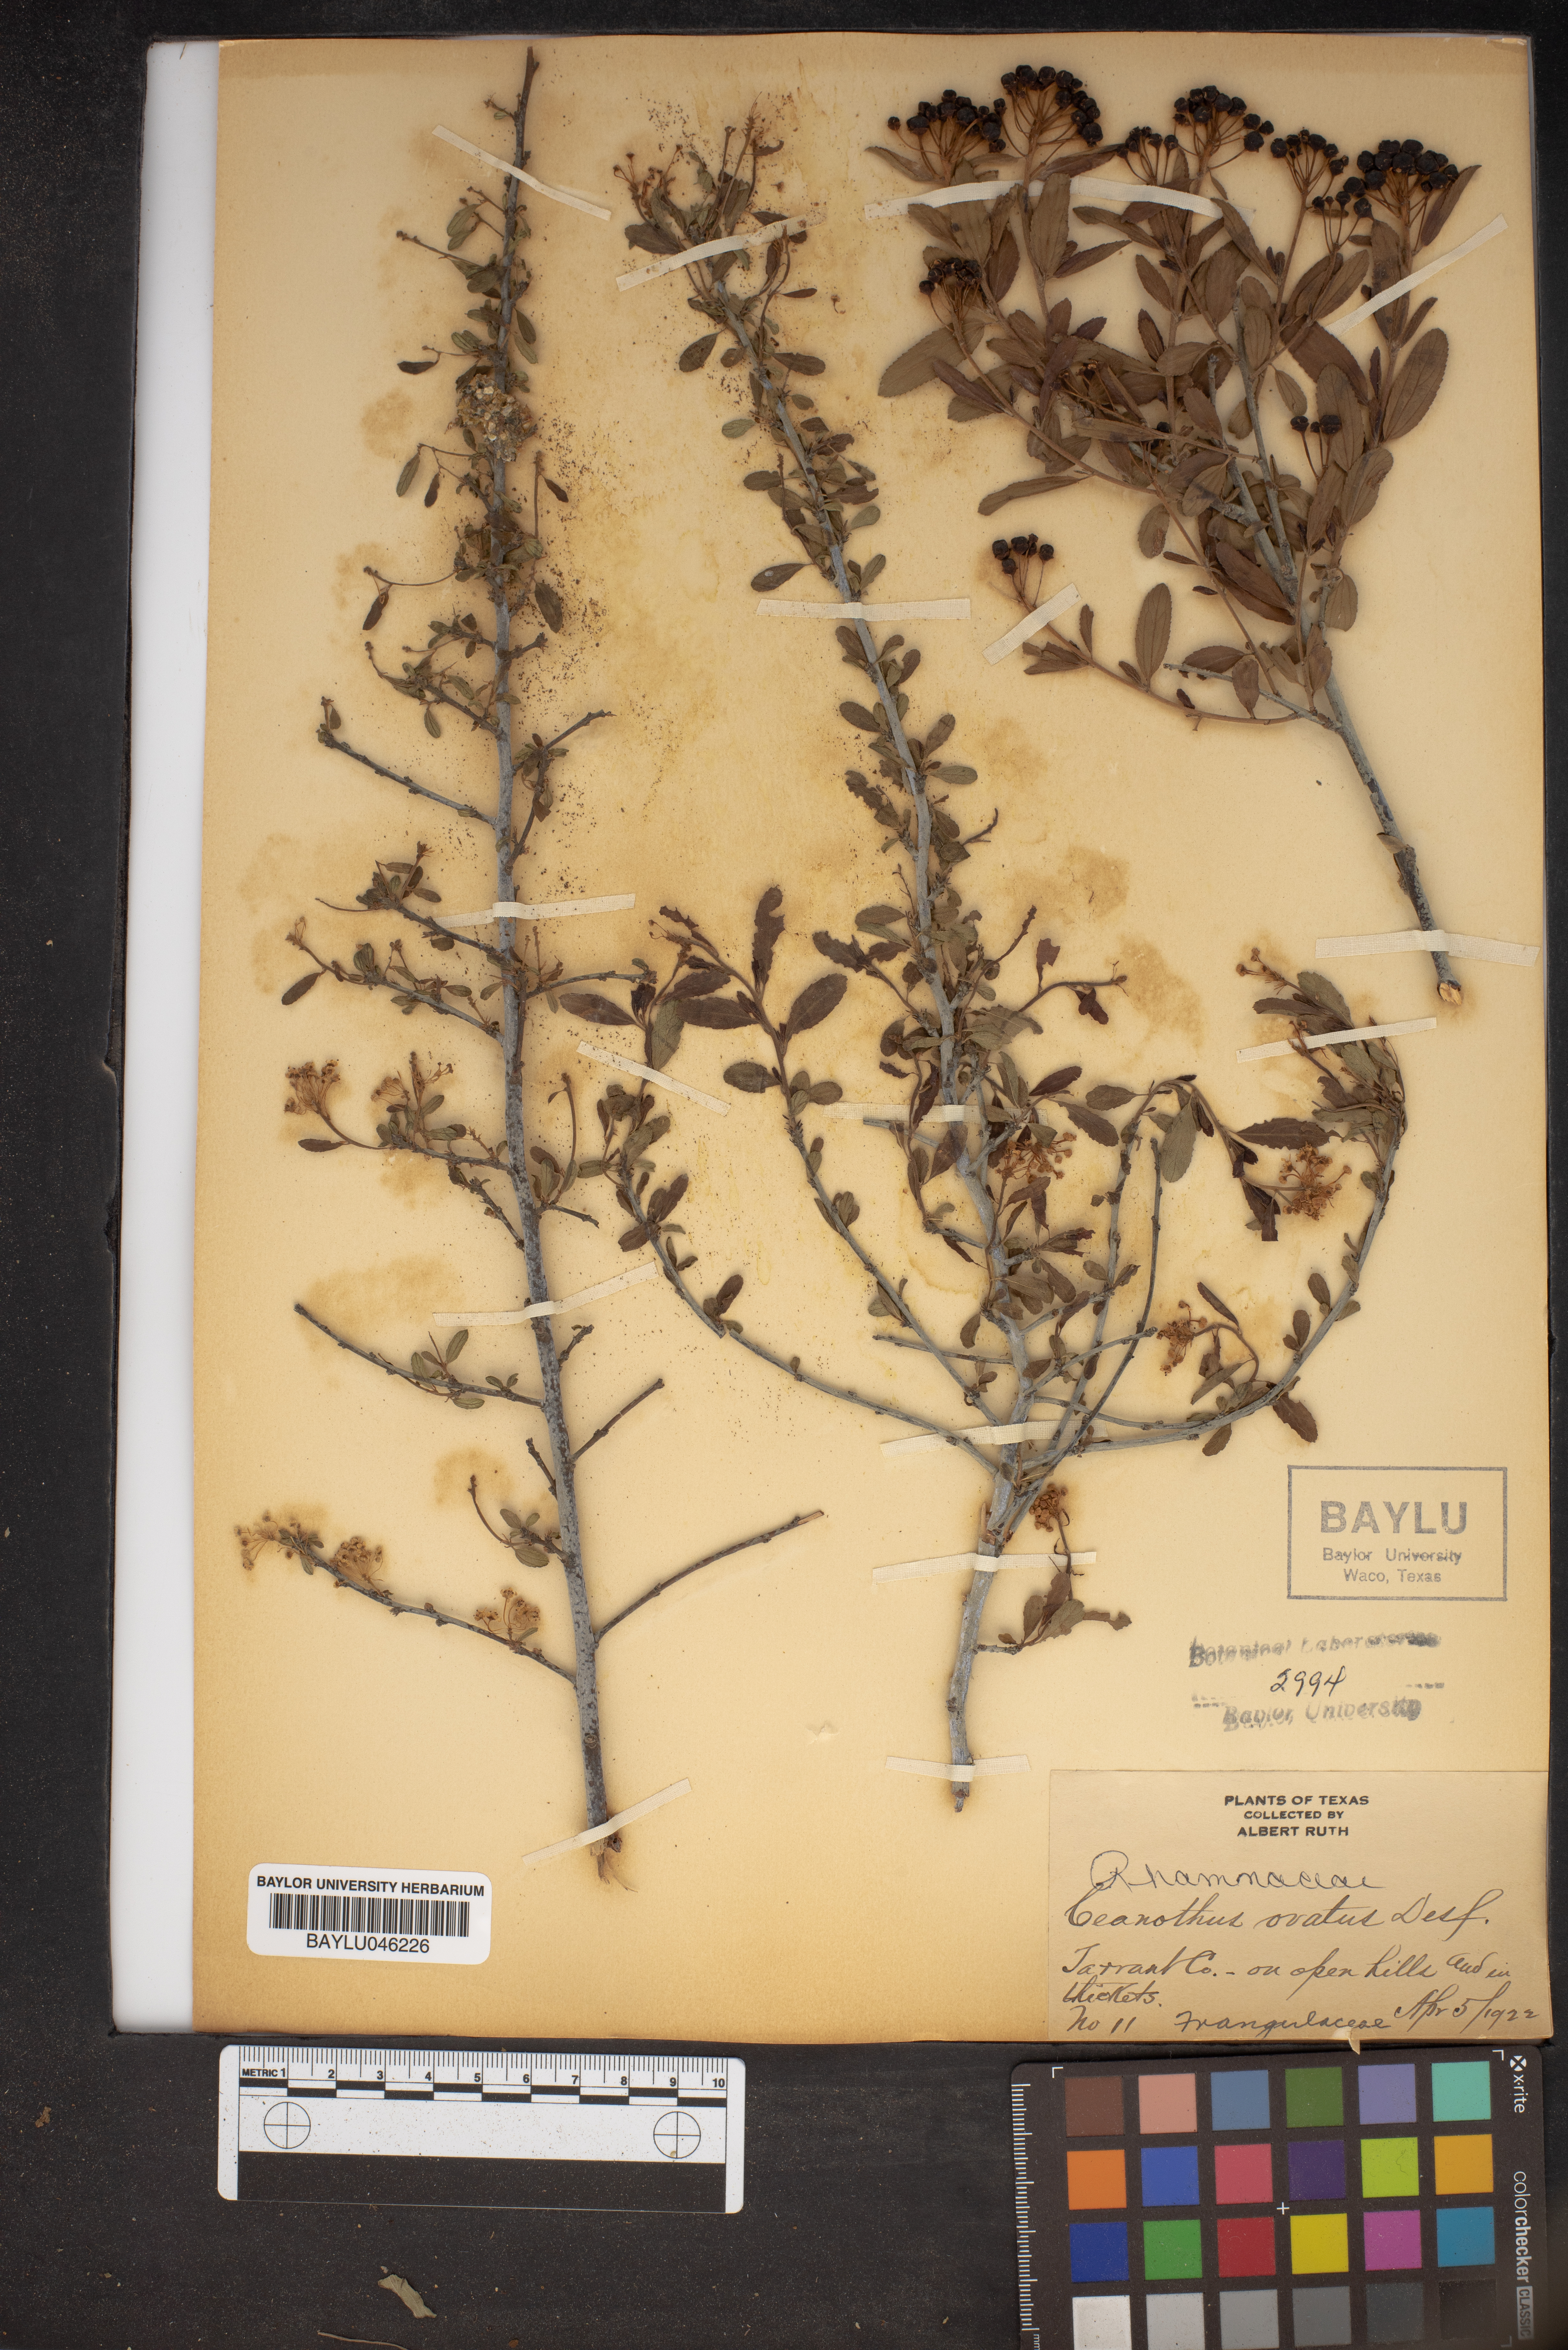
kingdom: Plantae
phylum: Tracheophyta
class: Magnoliopsida
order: Rosales
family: Rhamnaceae
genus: Ceanothus
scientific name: Ceanothus herbaceus
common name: Inland ceanothus
